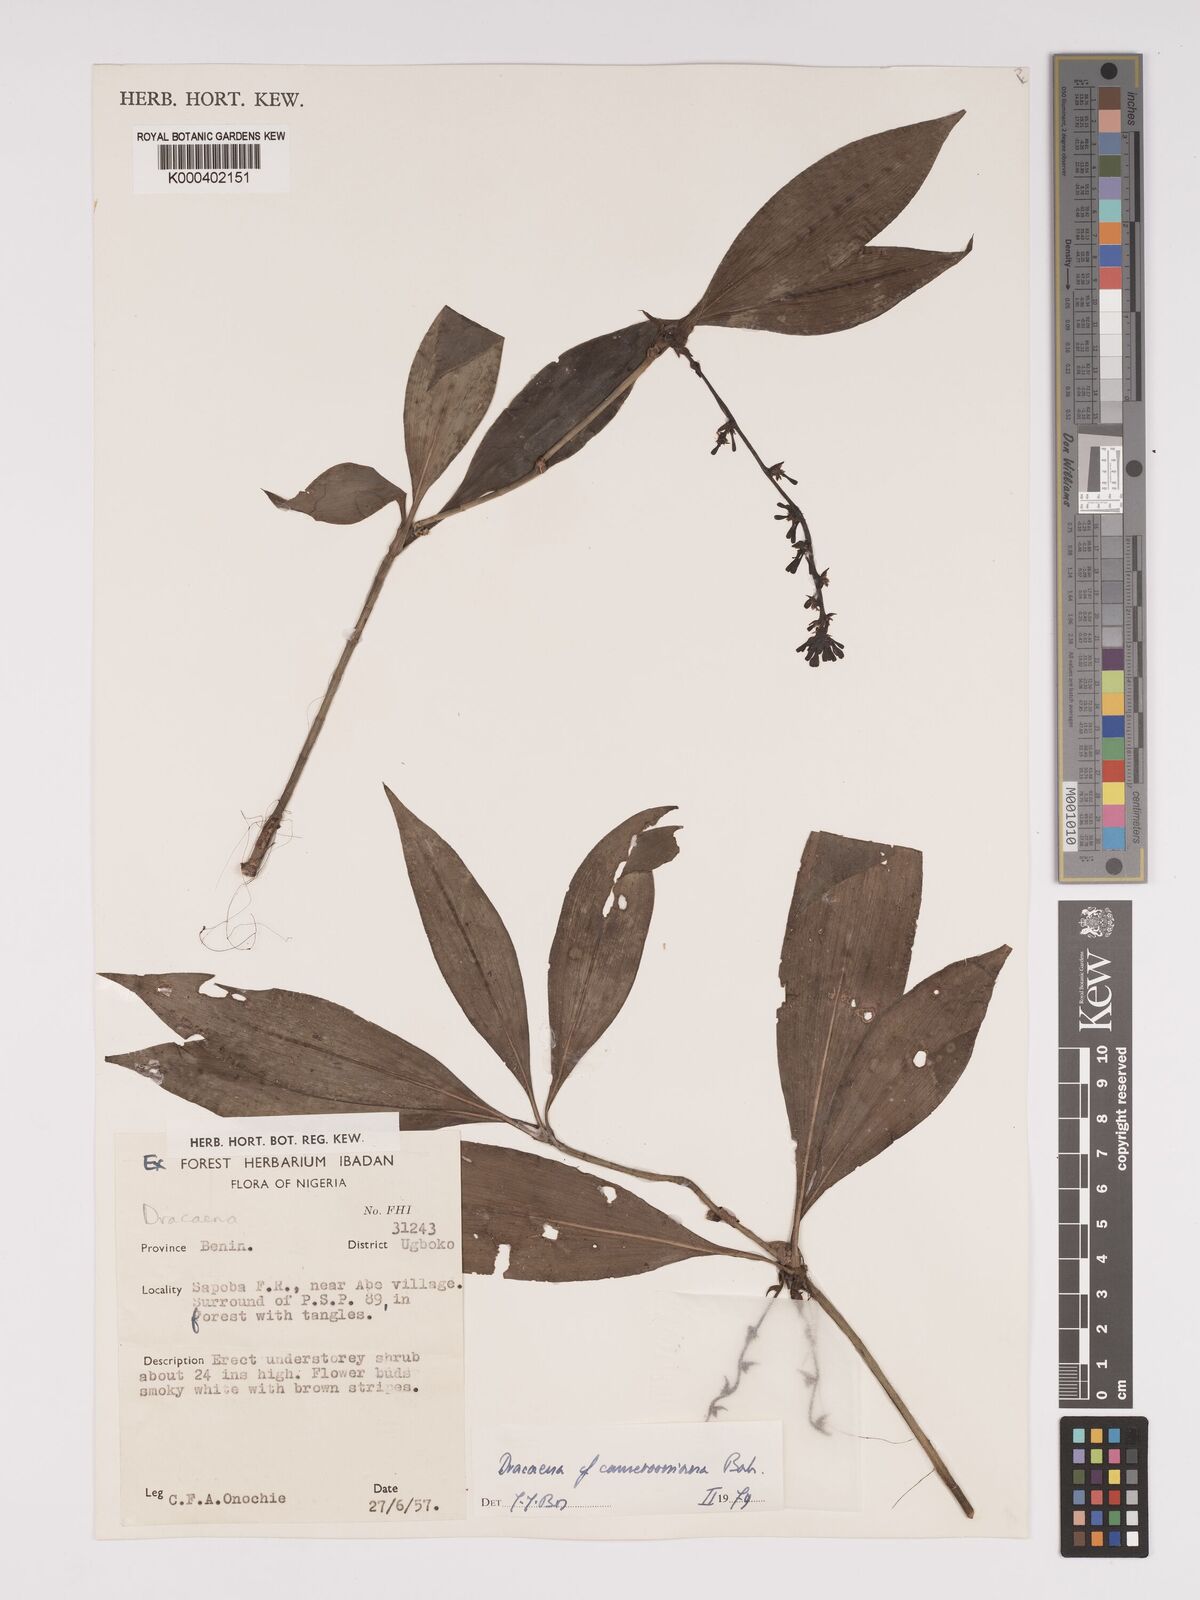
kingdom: Plantae
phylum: Tracheophyta
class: Liliopsida
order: Asparagales
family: Asparagaceae
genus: Dracaena
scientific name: Dracaena camerooniana
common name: Dragon tree
